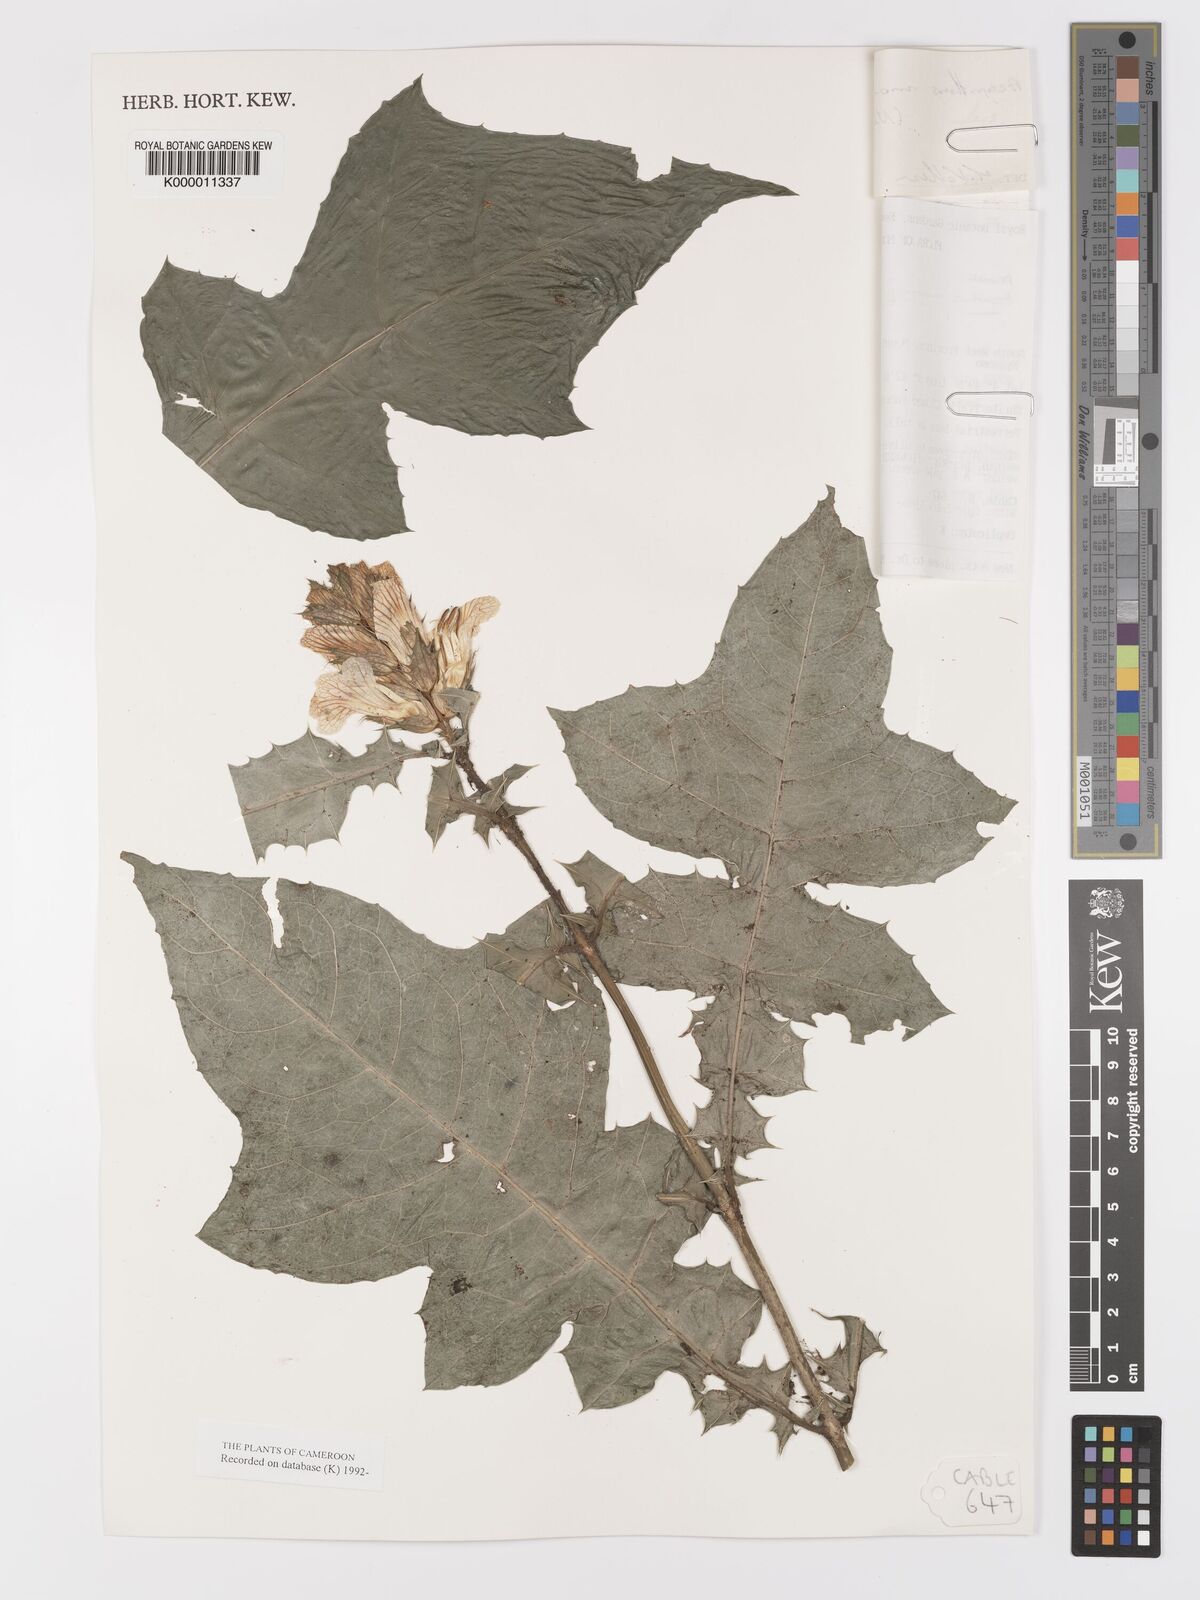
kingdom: Plantae
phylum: Tracheophyta
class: Magnoliopsida
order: Lamiales
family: Acanthaceae
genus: Acanthus
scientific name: Acanthus montanus
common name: Mountain thistle
